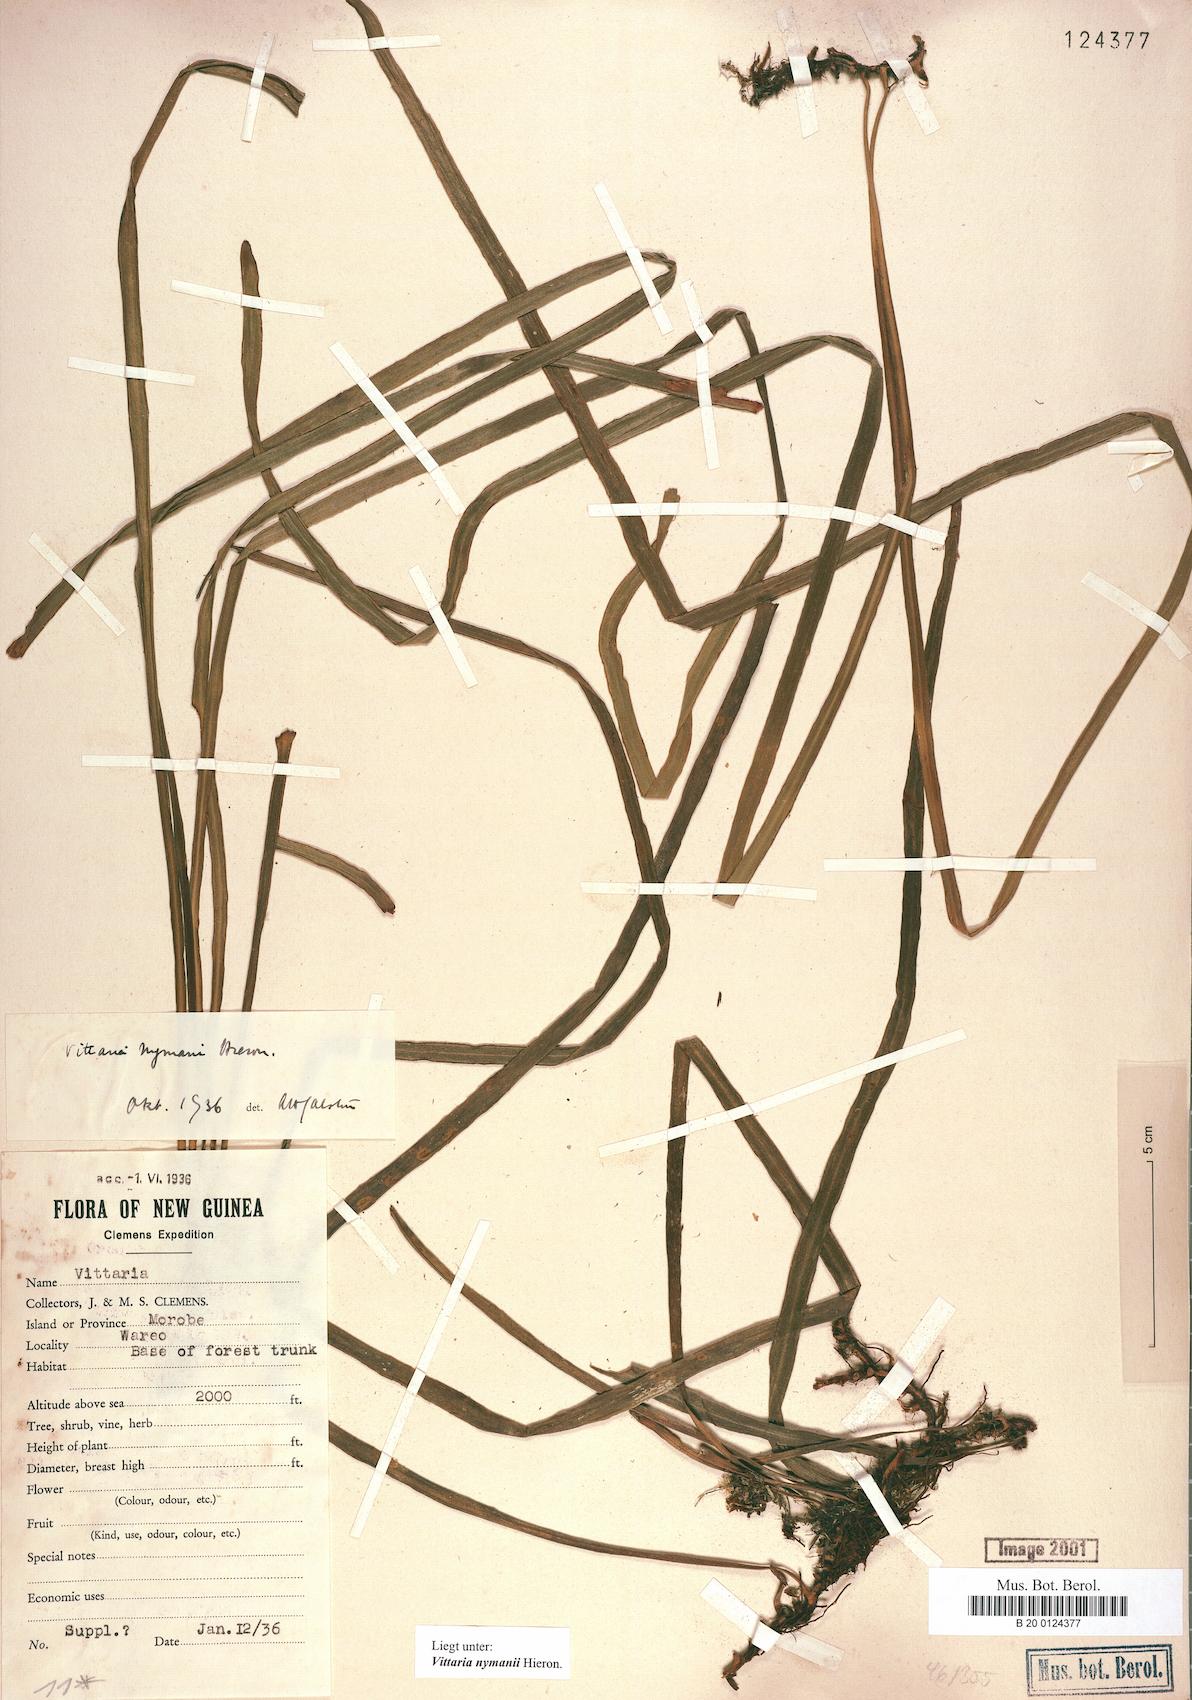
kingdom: Plantae
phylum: Tracheophyta
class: Polypodiopsida
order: Polypodiales
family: Pteridaceae
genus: Haplopteris
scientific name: Haplopteris elongata
